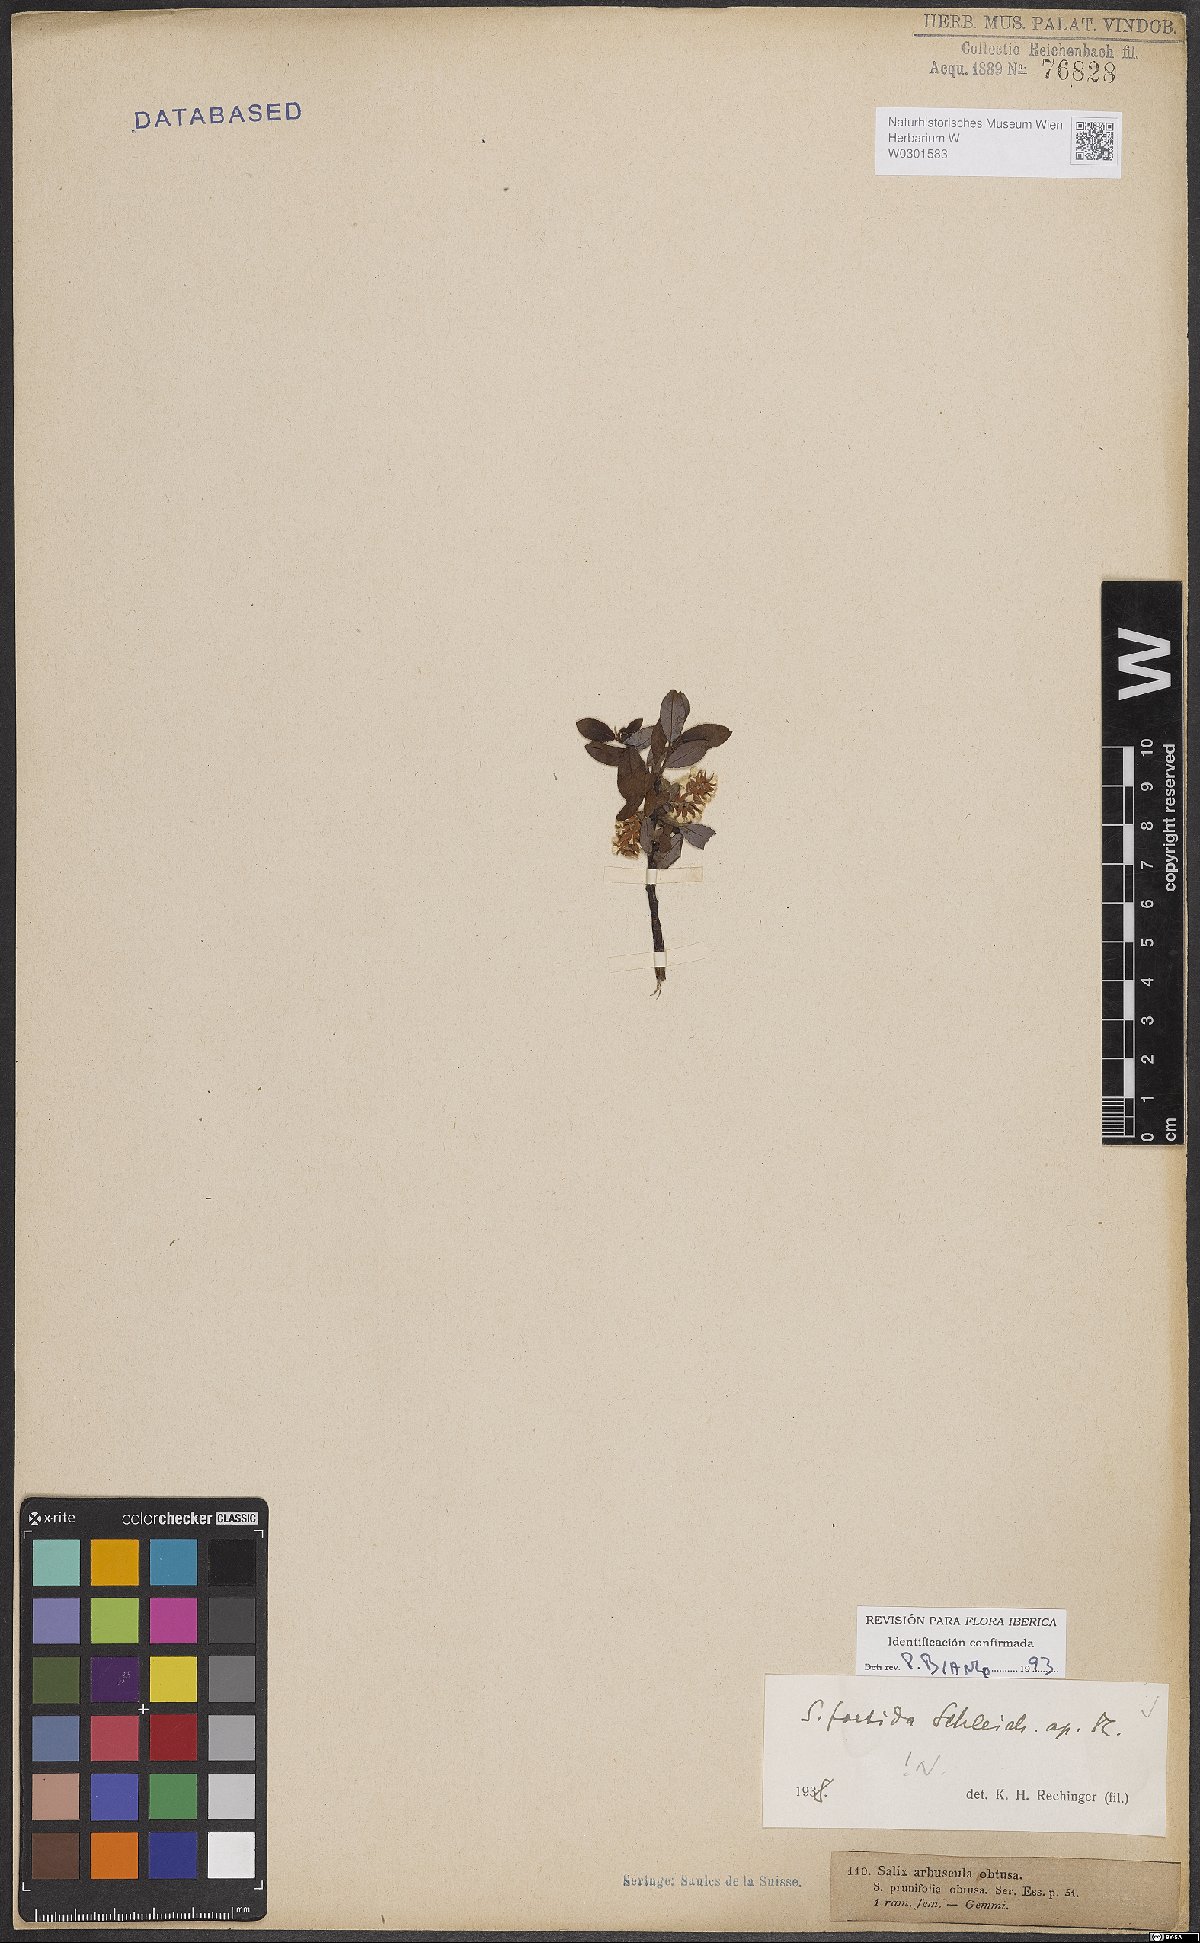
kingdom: Plantae
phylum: Tracheophyta
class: Magnoliopsida
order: Malpighiales
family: Salicaceae
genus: Salix
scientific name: Salix foetida
